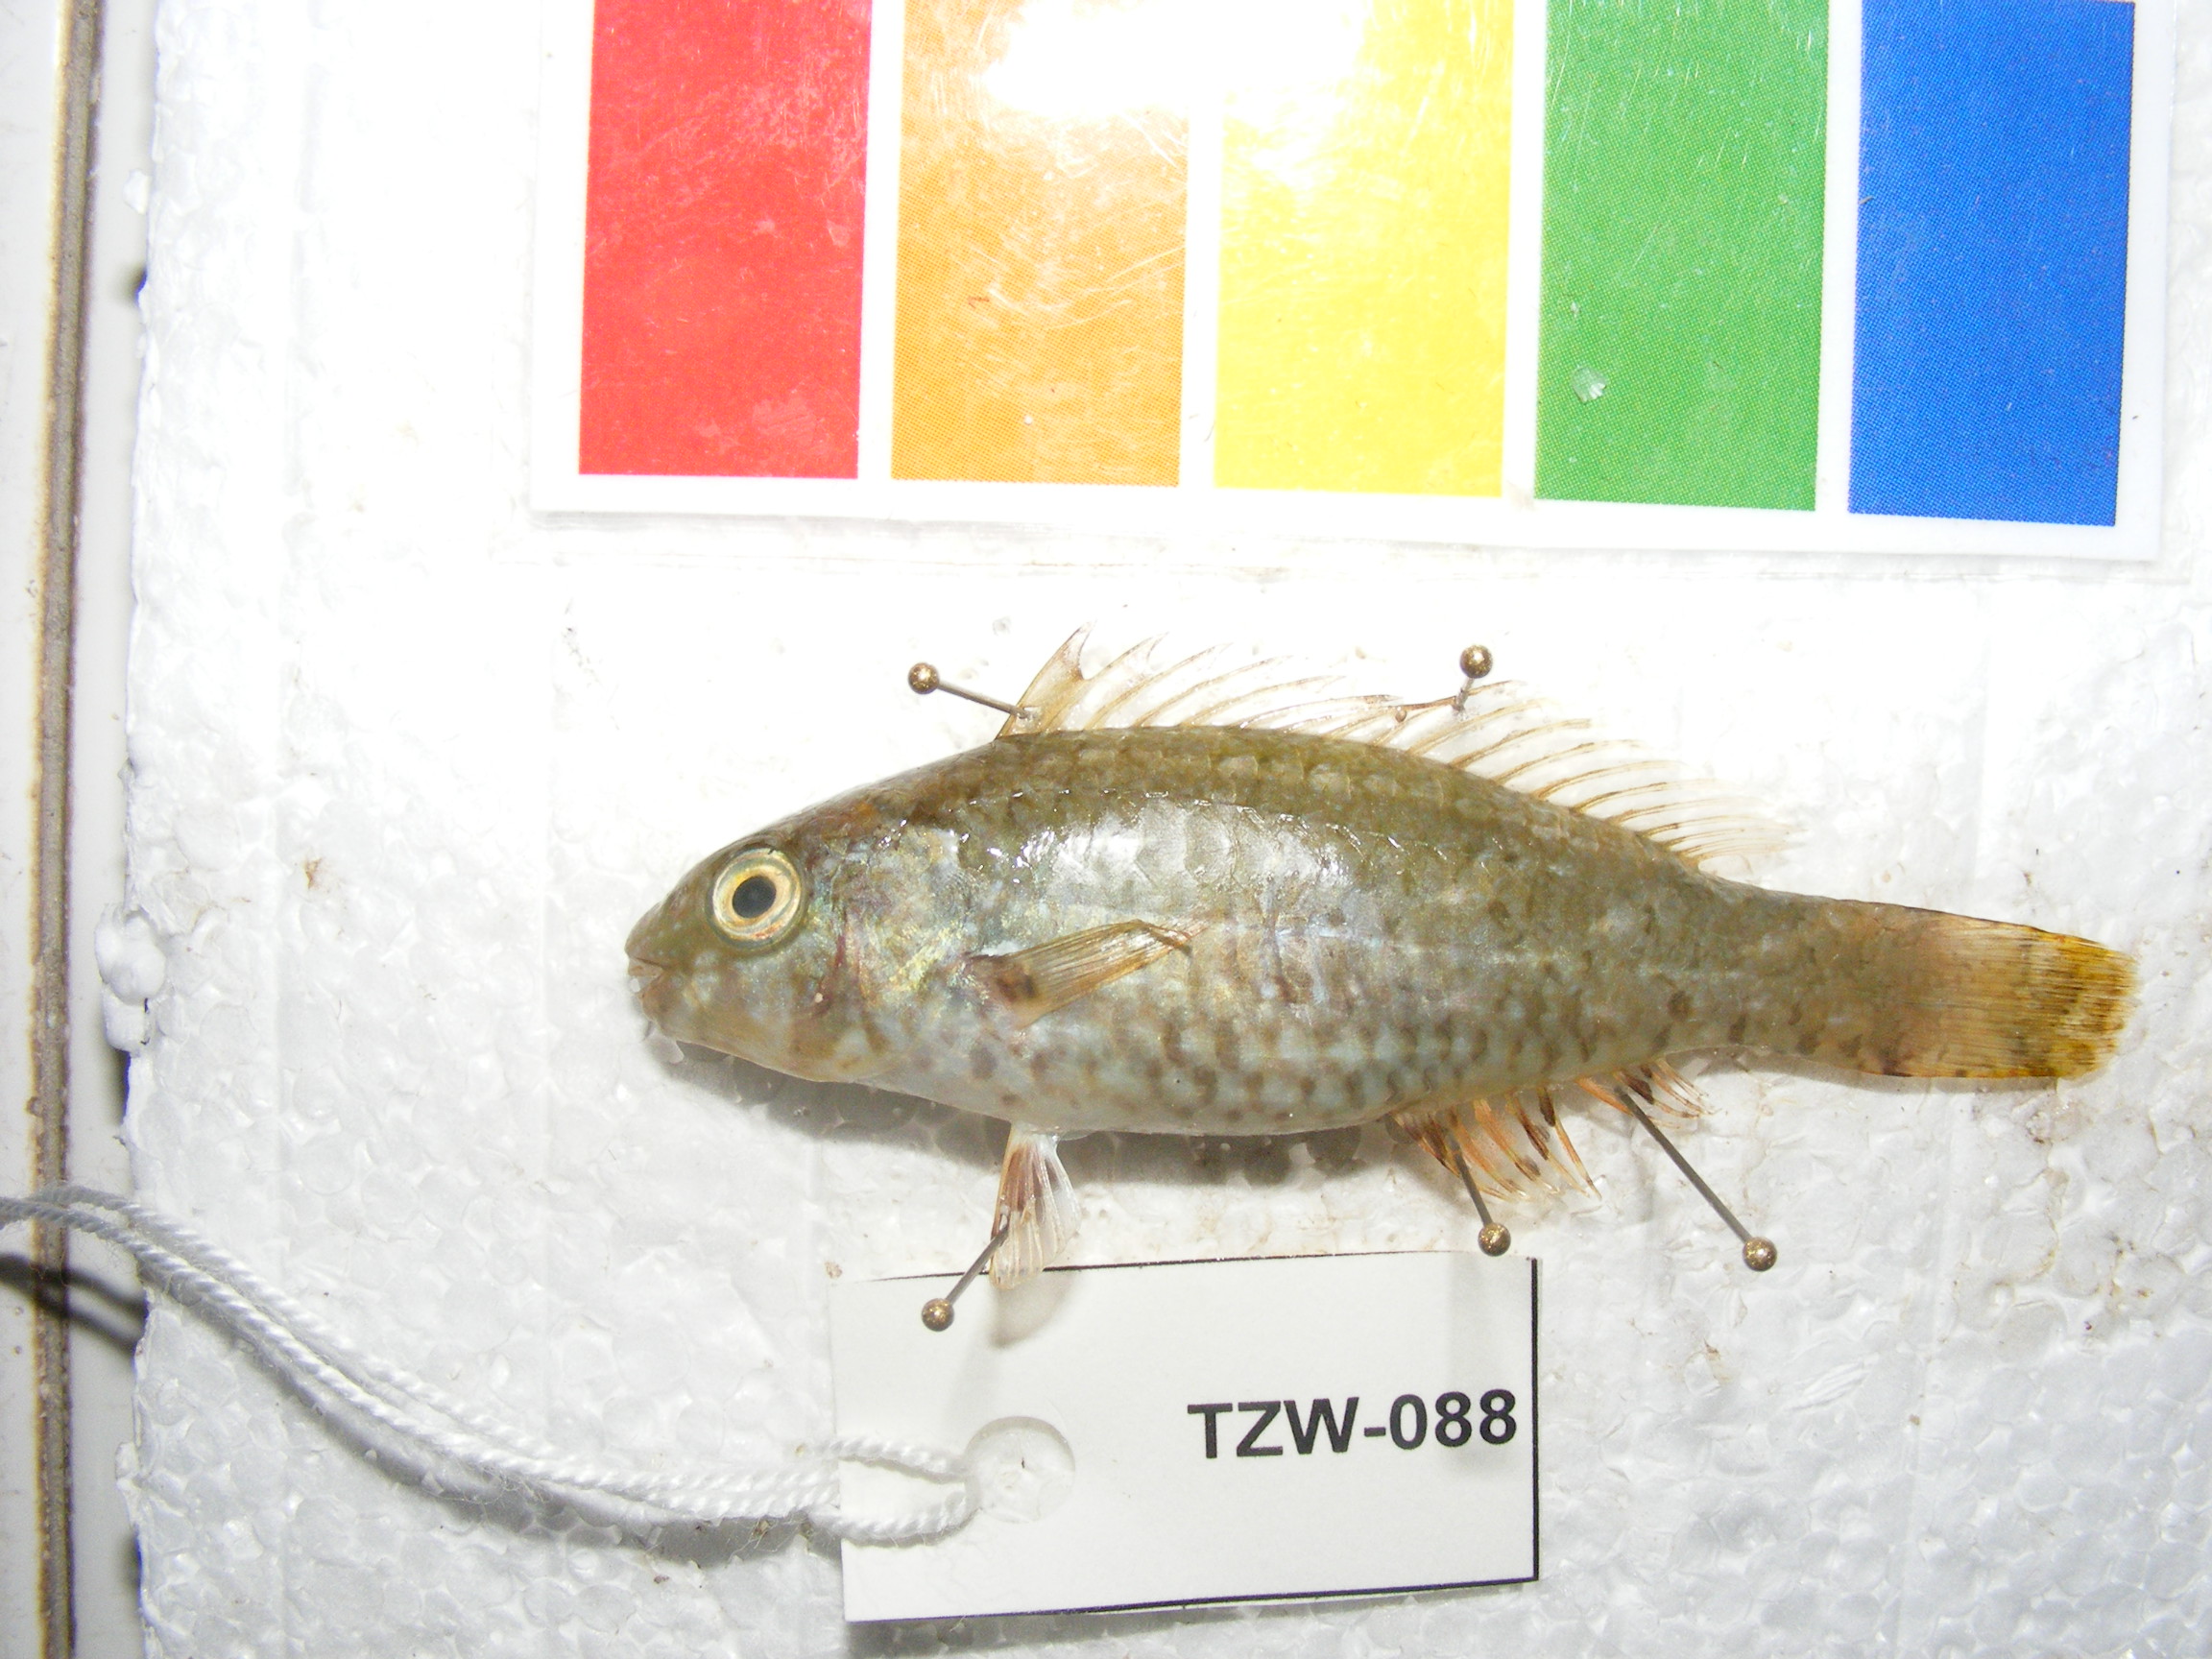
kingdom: Animalia
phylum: Chordata
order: Perciformes
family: Scaridae
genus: Leptoscarus
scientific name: Leptoscarus vaigiensis
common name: Marbled parrotfish
